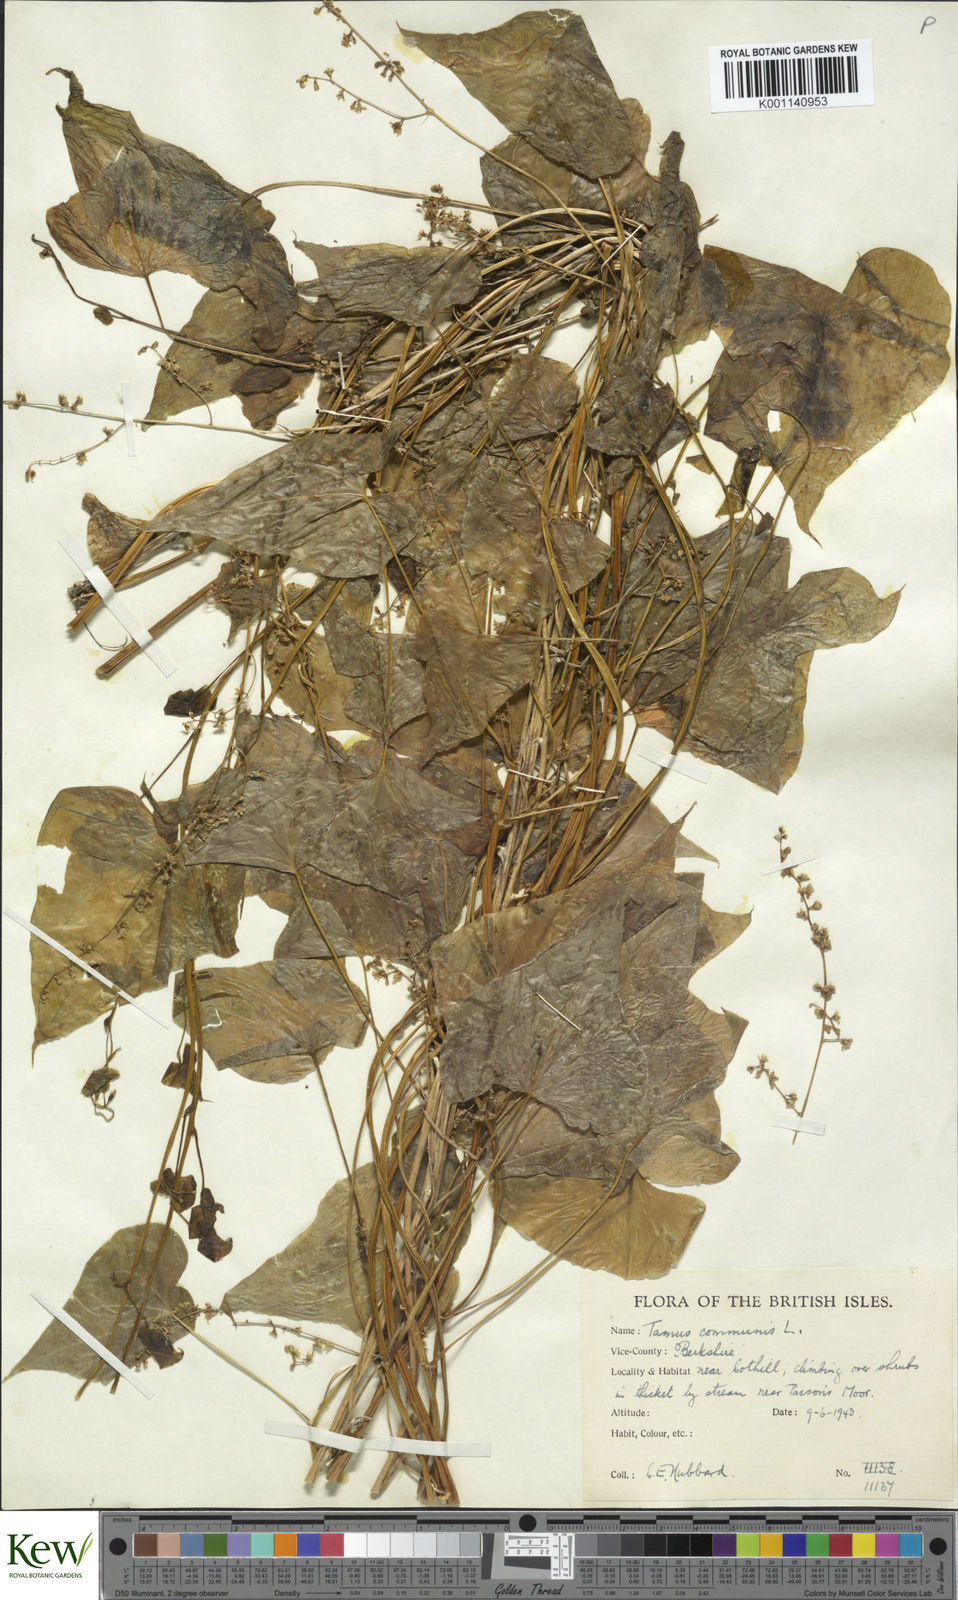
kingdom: Plantae
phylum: Tracheophyta
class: Liliopsida
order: Dioscoreales
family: Dioscoreaceae
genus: Dioscorea
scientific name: Dioscorea communis
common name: Black-bindweed
